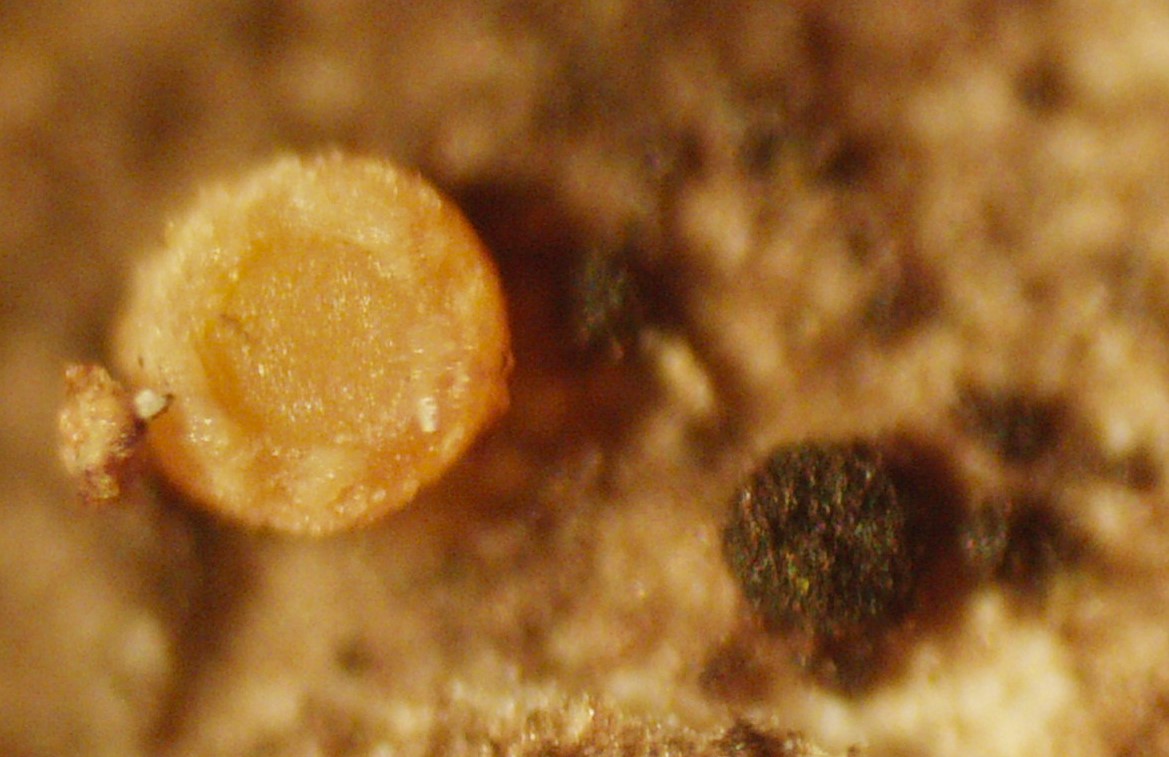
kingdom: Fungi
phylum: Ascomycota
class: Sareomycetes
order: Sareales
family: Sareaceae
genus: Sarea
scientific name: Sarea resinae
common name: orangegul harpiksskive
